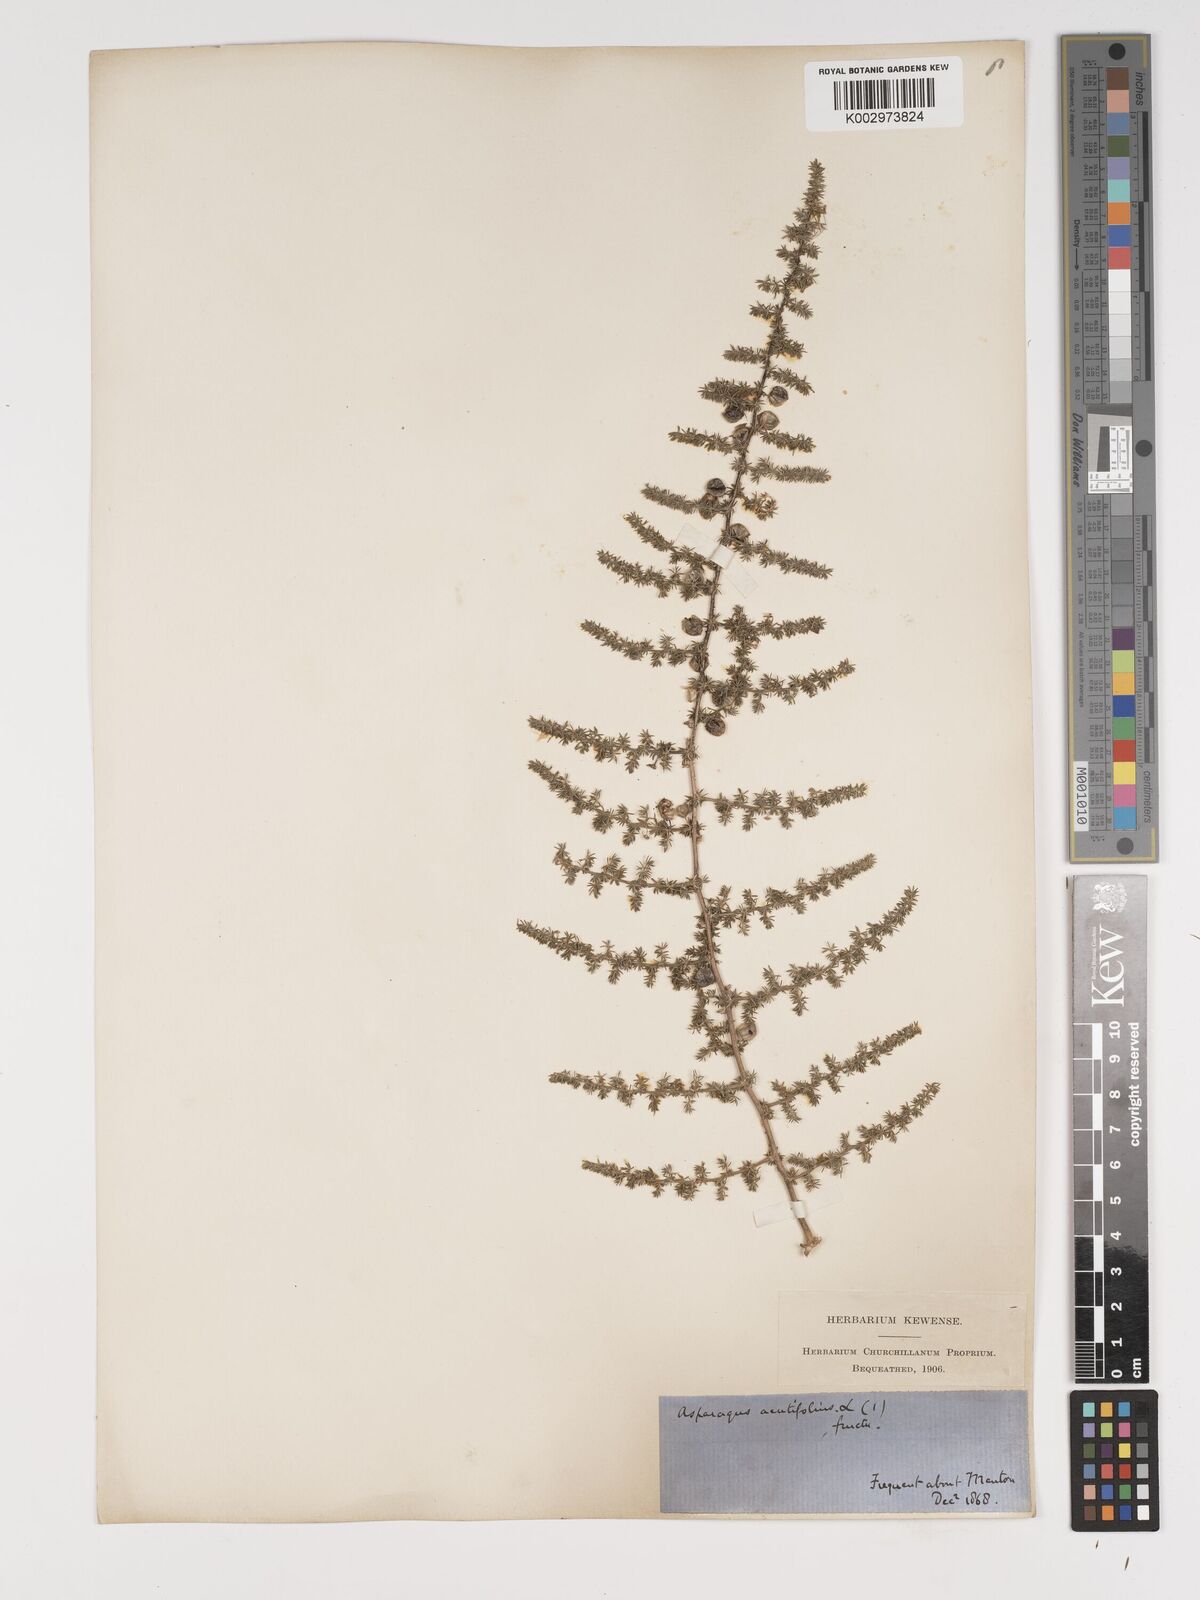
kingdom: Plantae
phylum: Tracheophyta
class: Liliopsida
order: Asparagales
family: Asparagaceae
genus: Asparagus
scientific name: Asparagus aethiopicus
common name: Sprenger's asparagus fern
